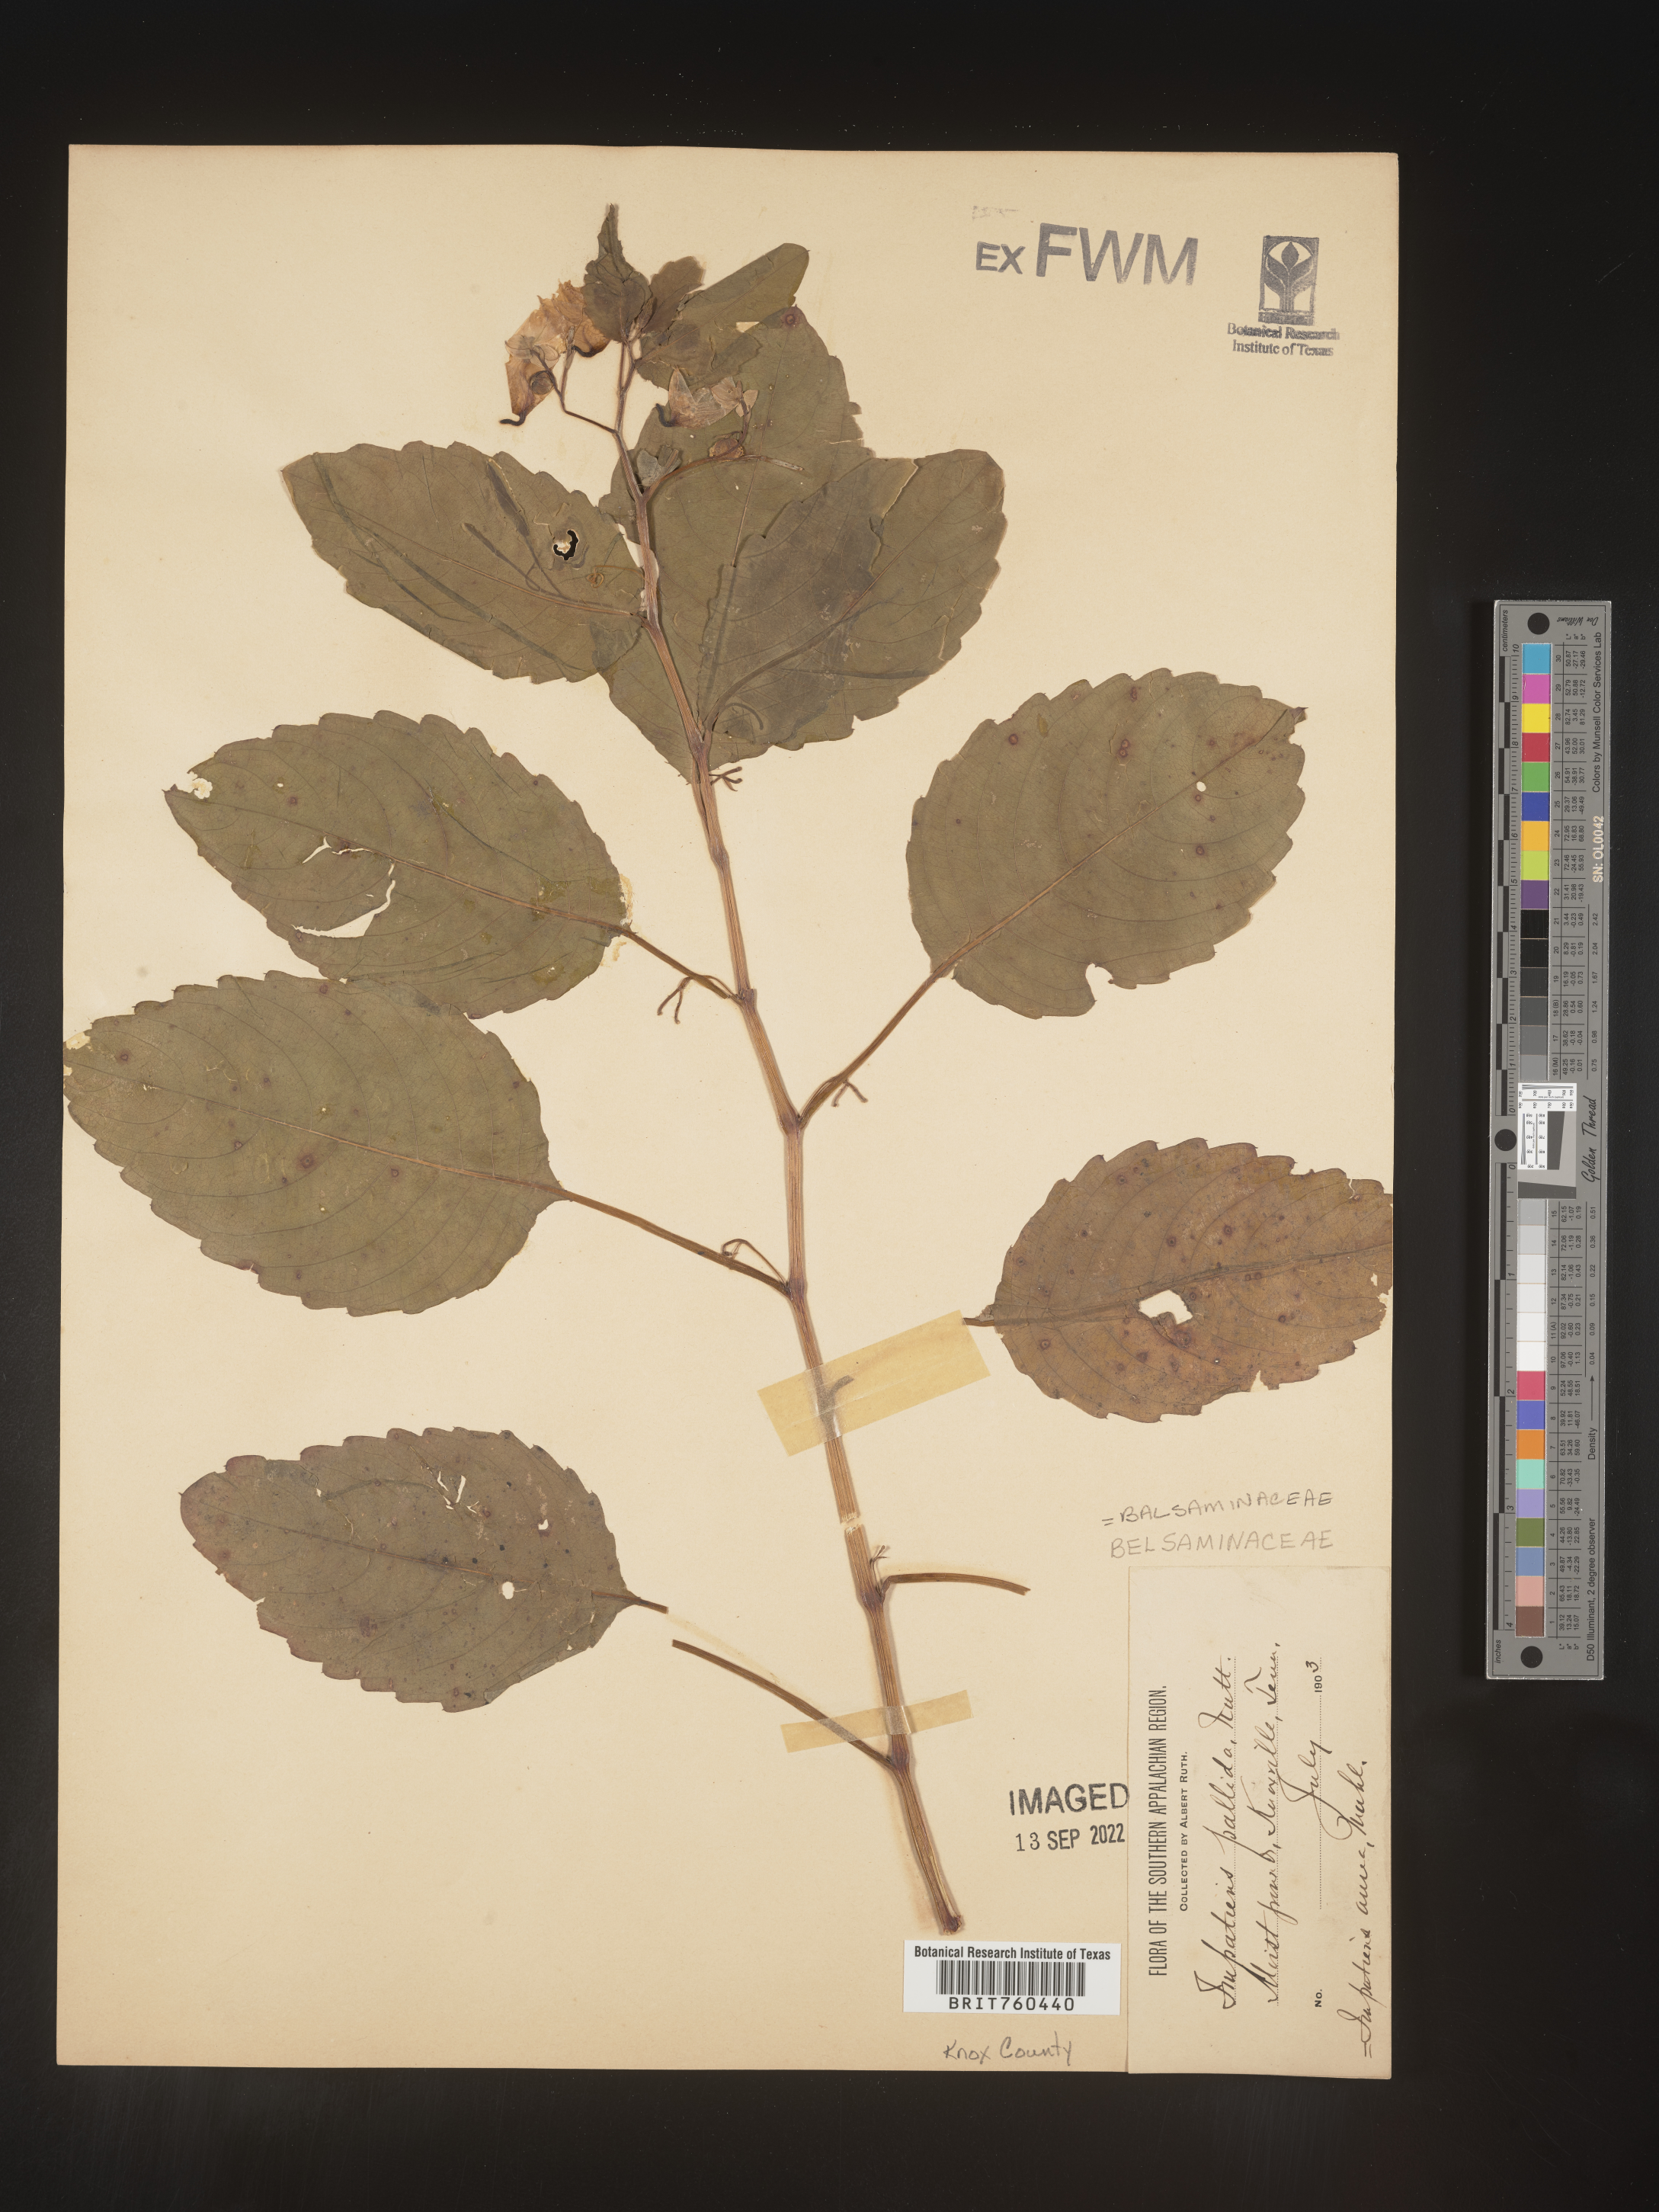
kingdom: Plantae
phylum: Tracheophyta
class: Magnoliopsida
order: Ericales
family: Balsaminaceae
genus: Impatiens
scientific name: Impatiens capensis
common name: Orange balsam
